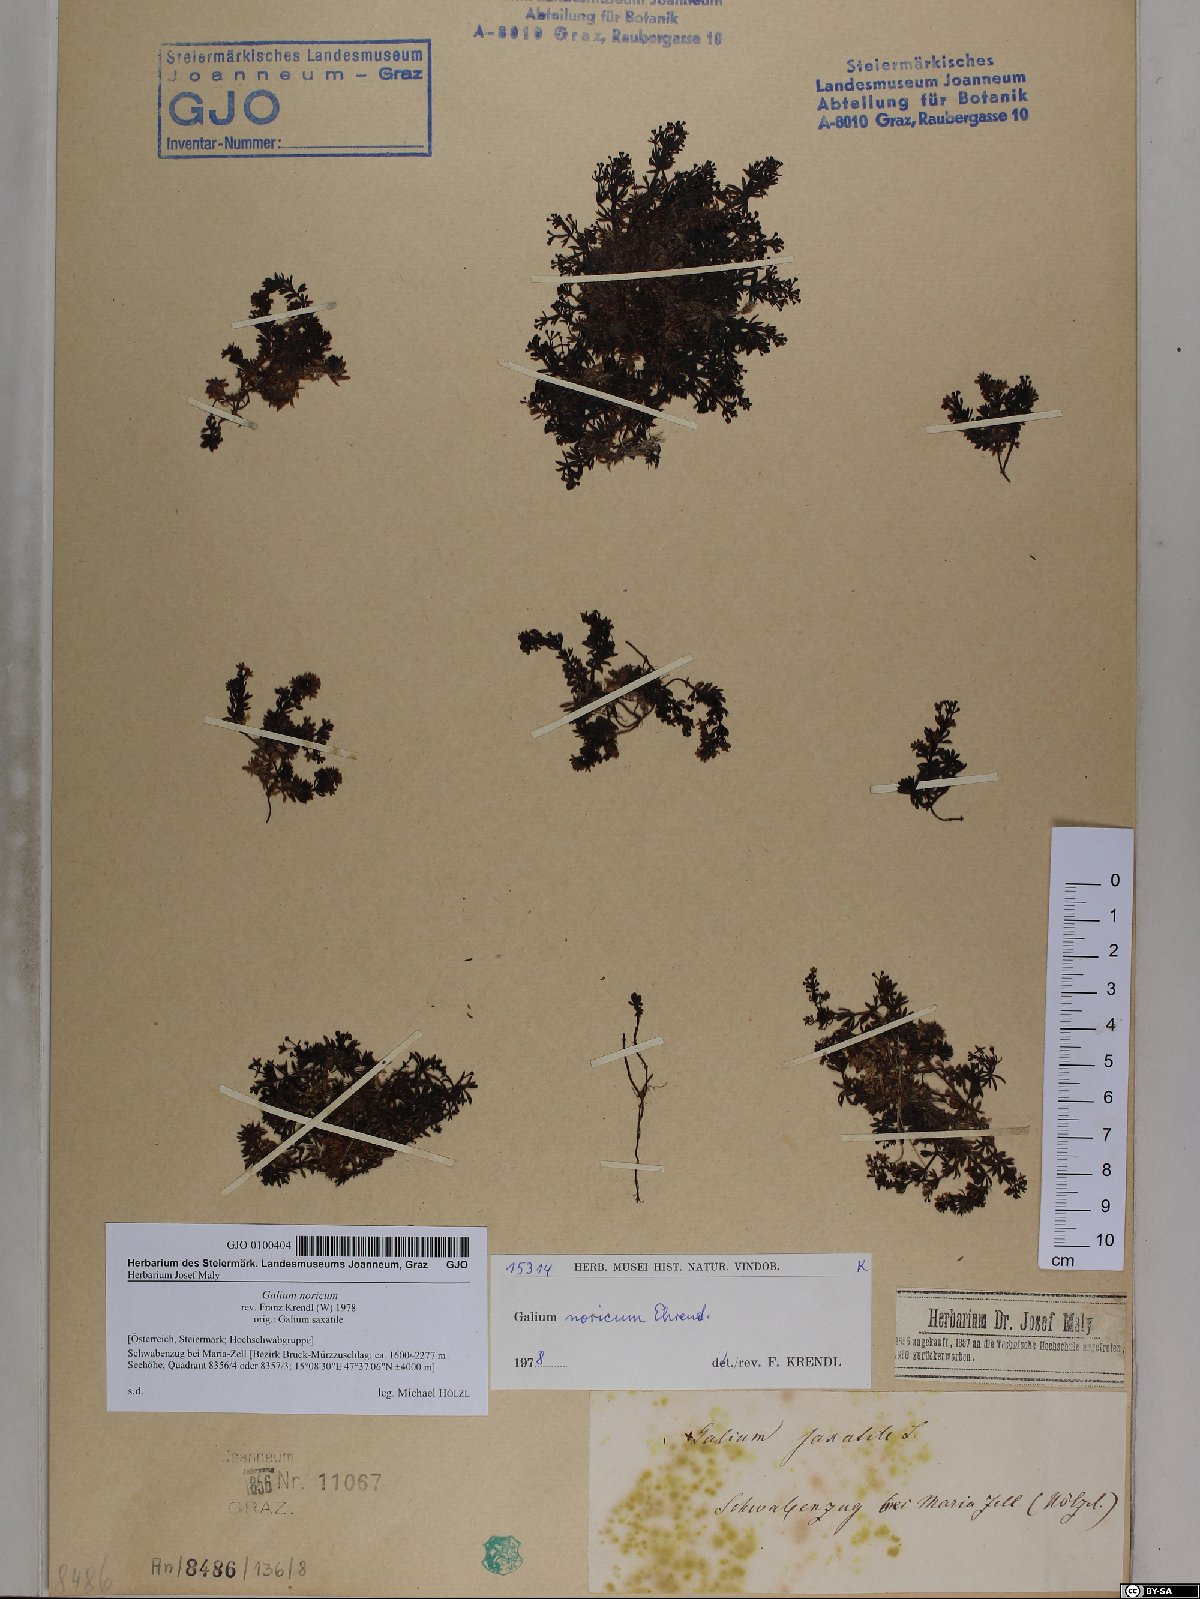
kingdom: Plantae
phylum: Tracheophyta
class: Magnoliopsida
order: Gentianales
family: Rubiaceae
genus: Galium
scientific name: Galium noricum
